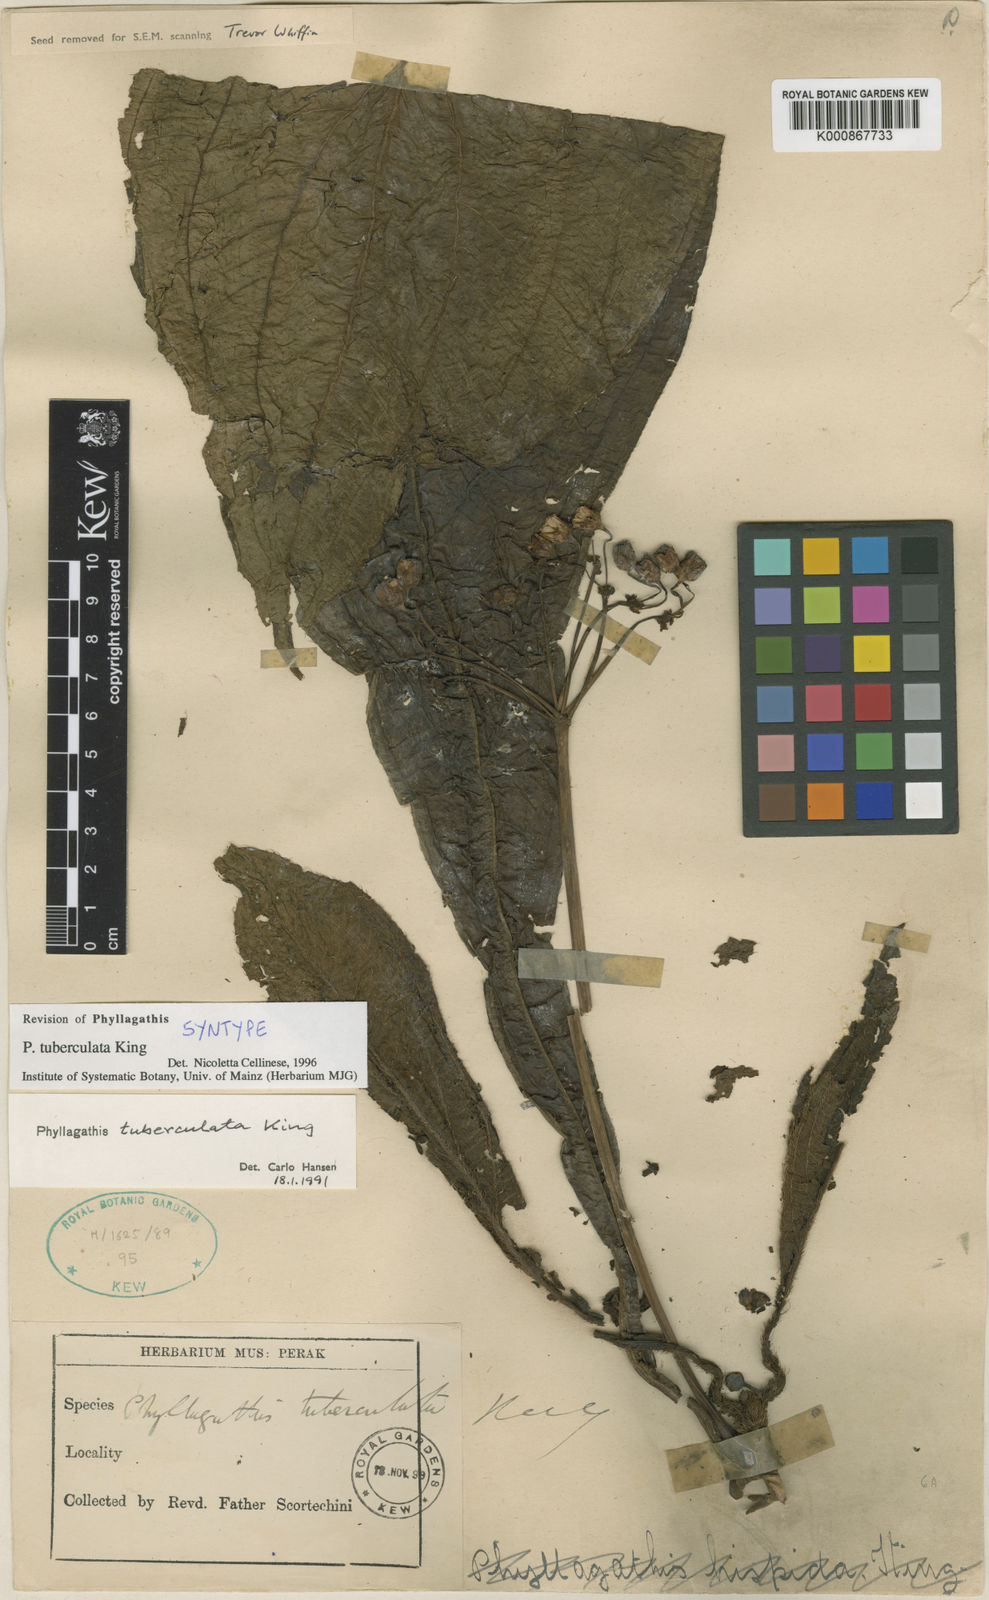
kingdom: Plantae
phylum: Tracheophyta
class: Magnoliopsida
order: Myrtales
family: Melastomataceae
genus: Phyllagathis
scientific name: Phyllagathis tuberculata
